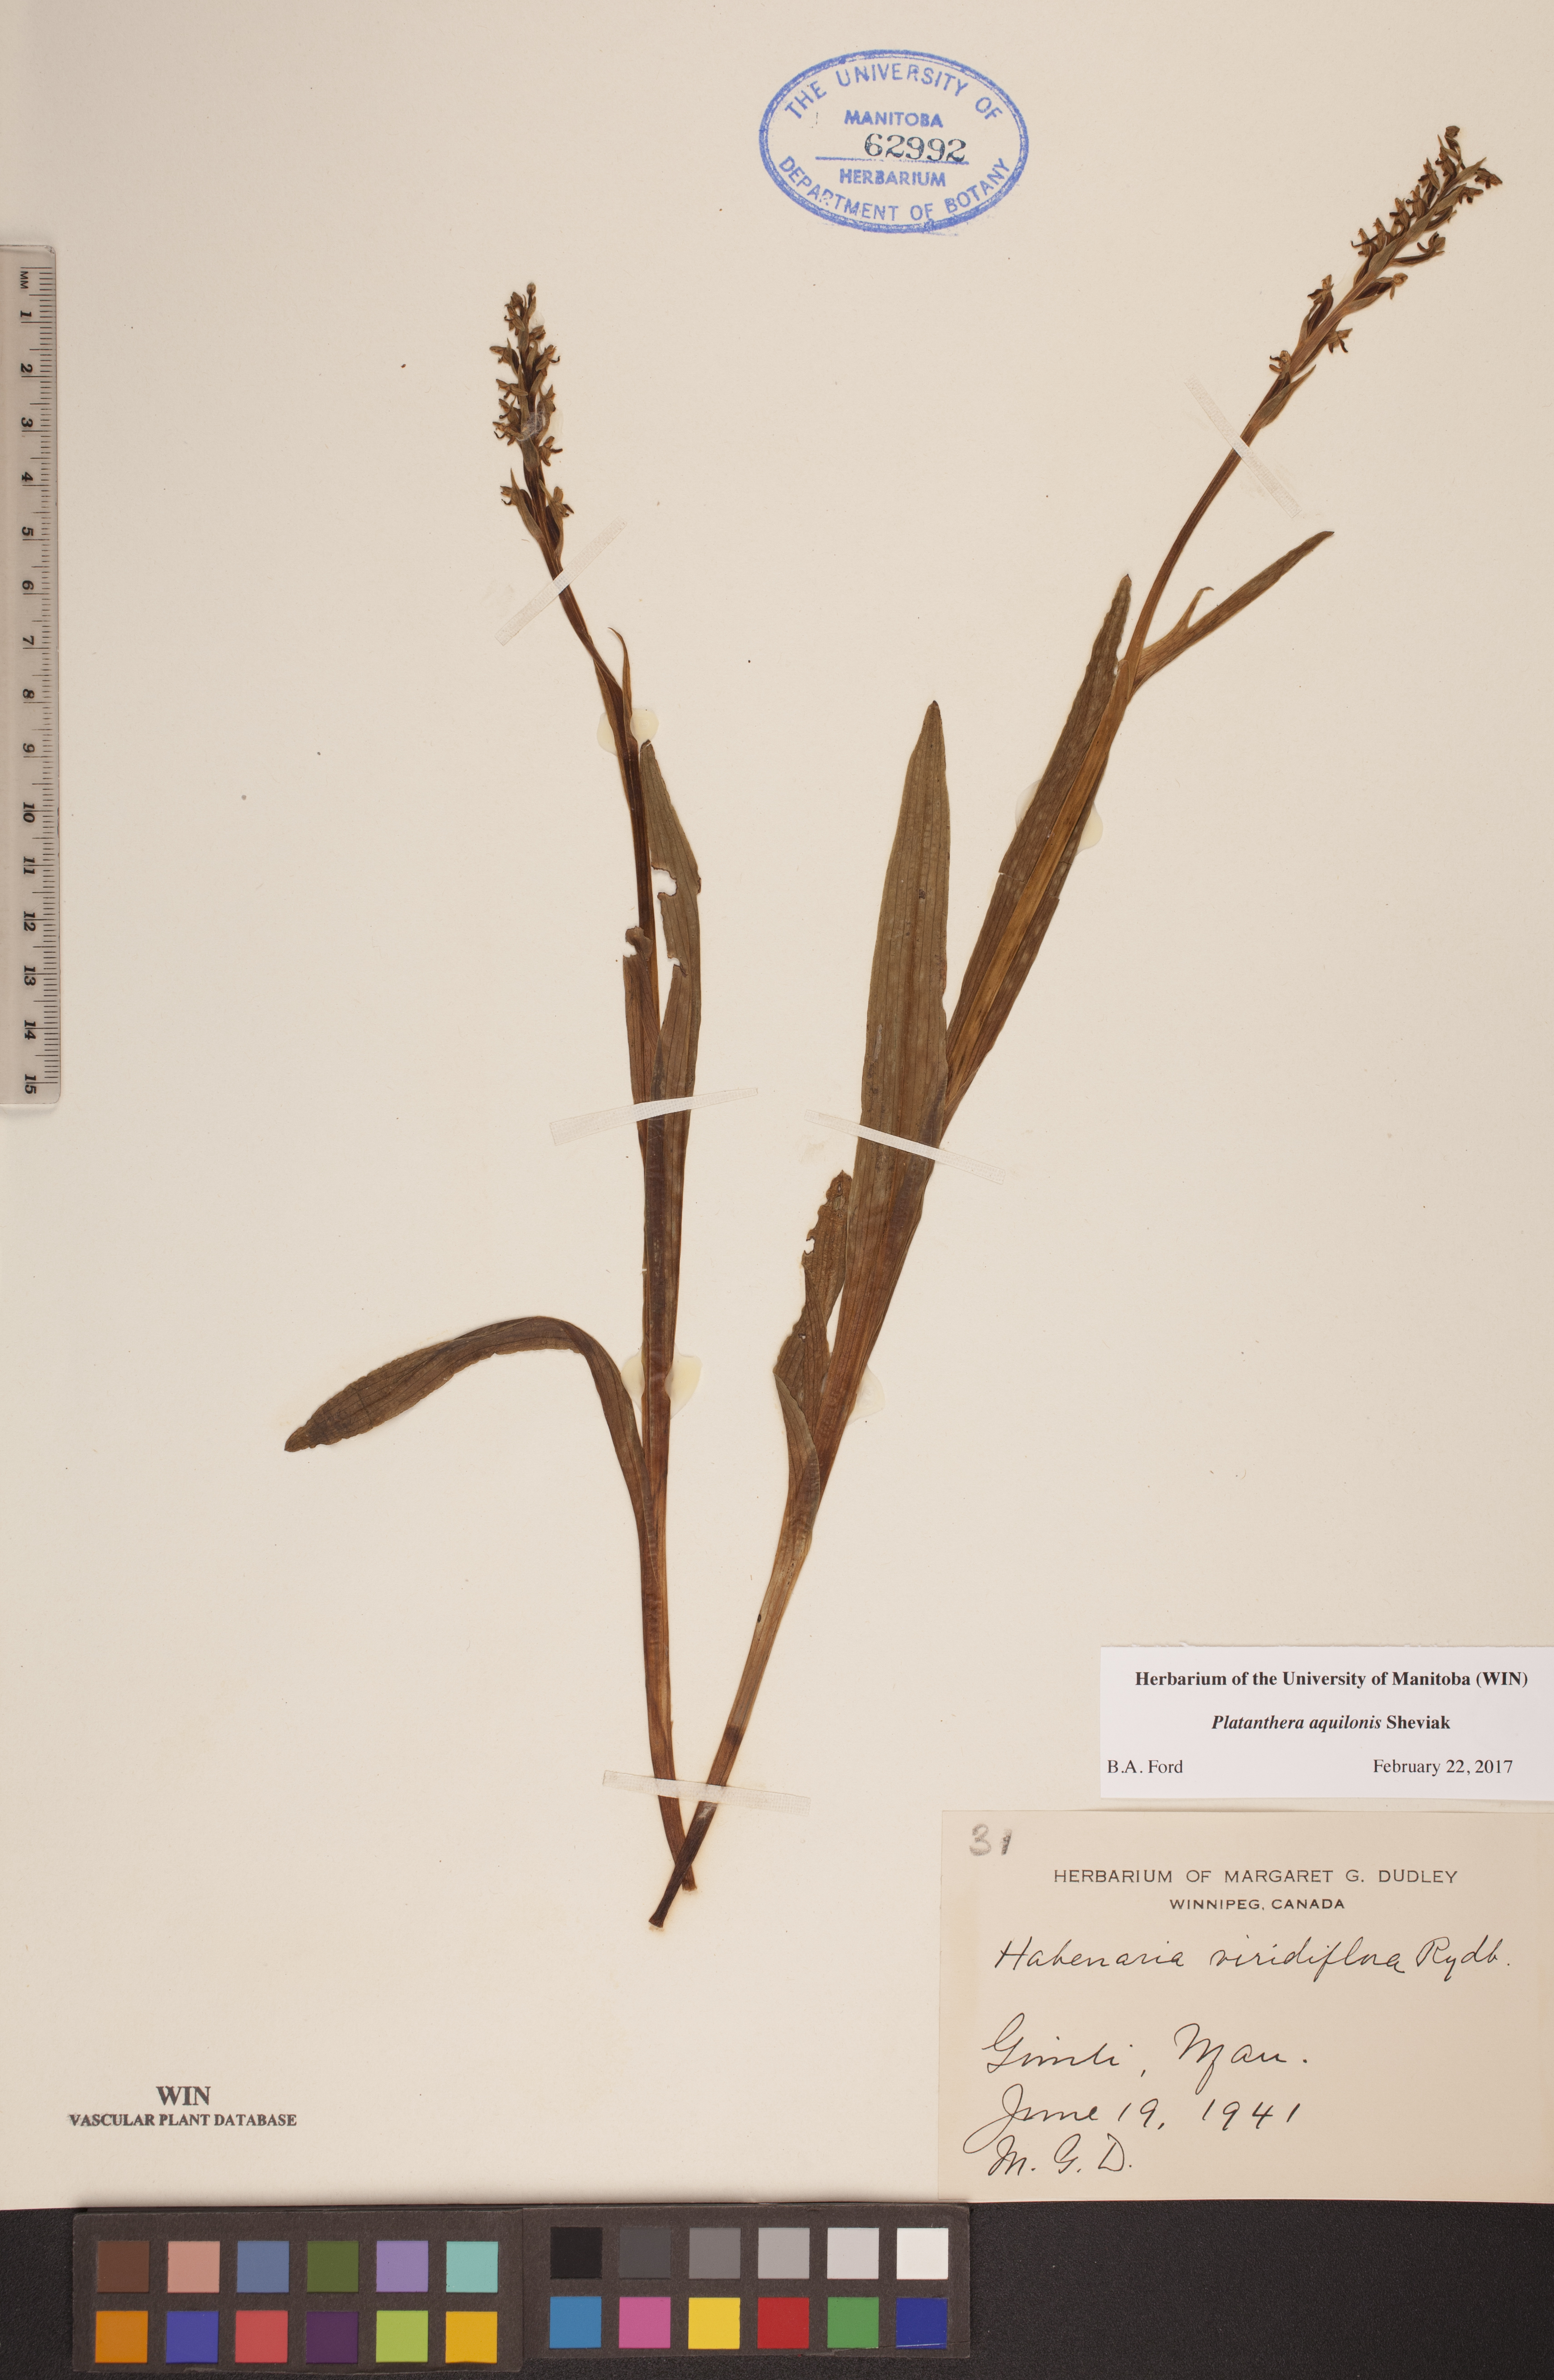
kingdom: Plantae
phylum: Tracheophyta
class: Liliopsida
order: Asparagales
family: Orchidaceae
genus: Platanthera
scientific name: Platanthera aquilonis
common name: Northern green orchid
